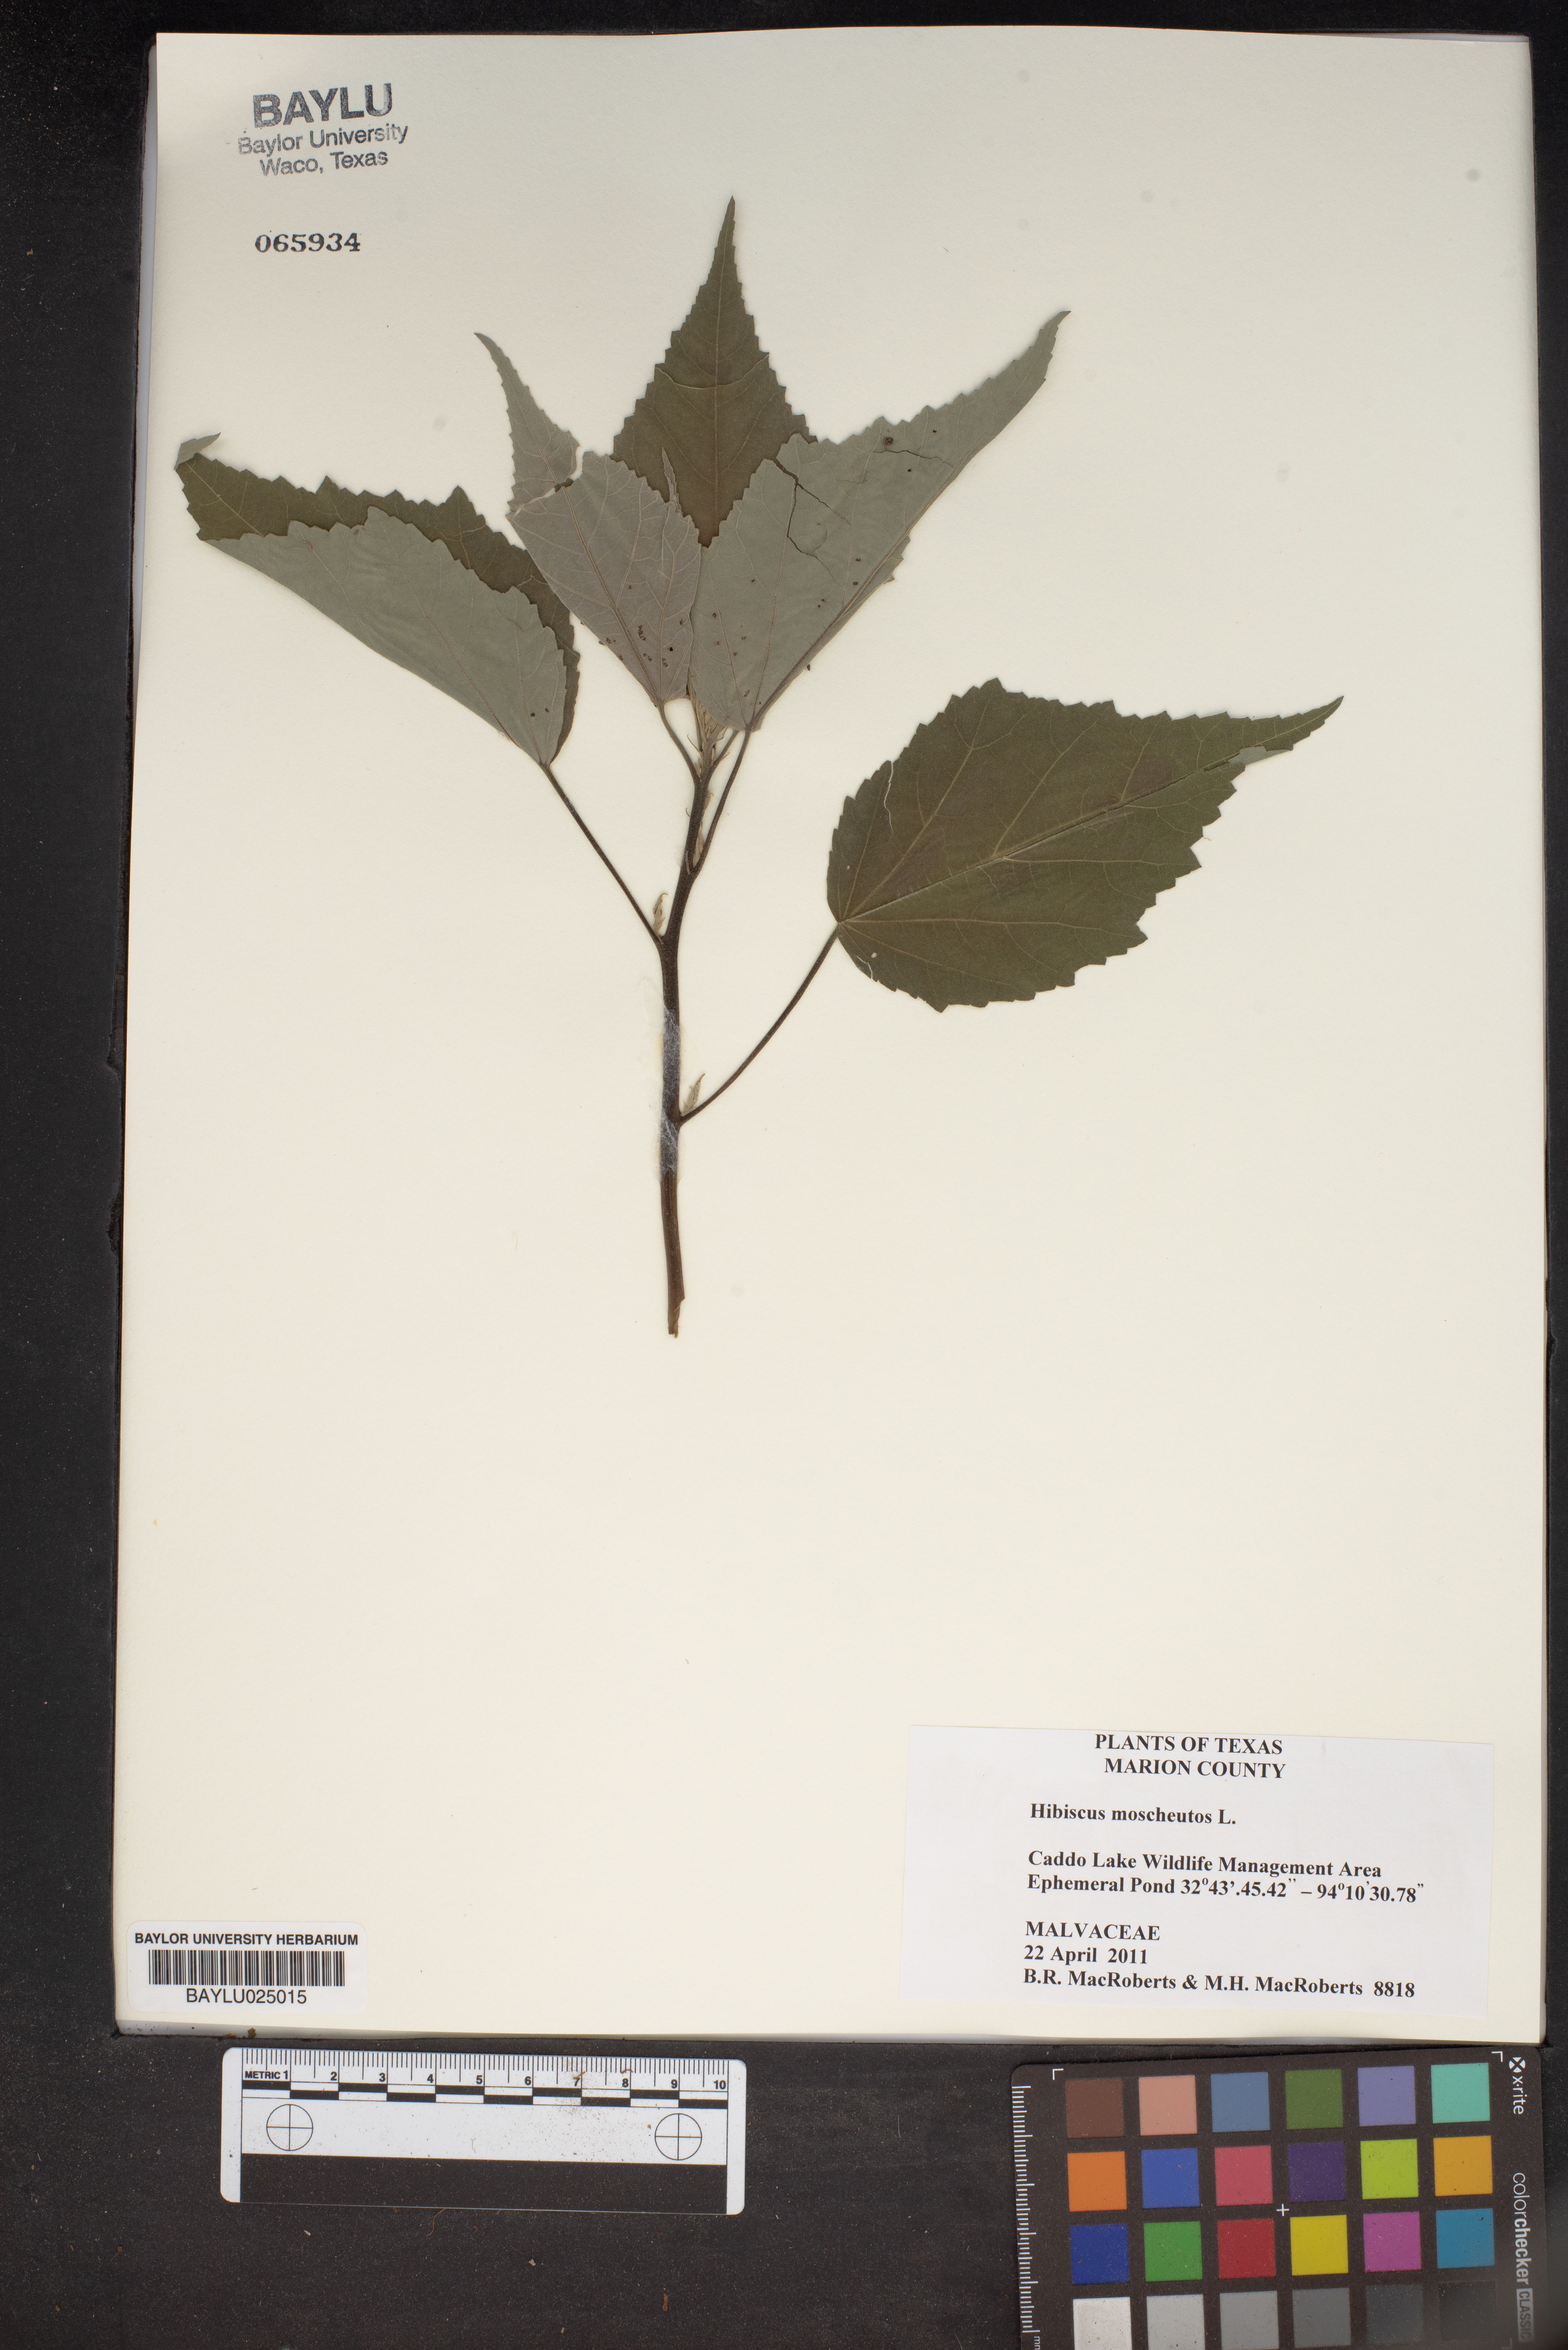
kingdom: Plantae
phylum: Tracheophyta
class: Magnoliopsida
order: Malvales
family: Malvaceae
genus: Hibiscus
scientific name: Hibiscus moscheutos
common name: Common rose-mallow
